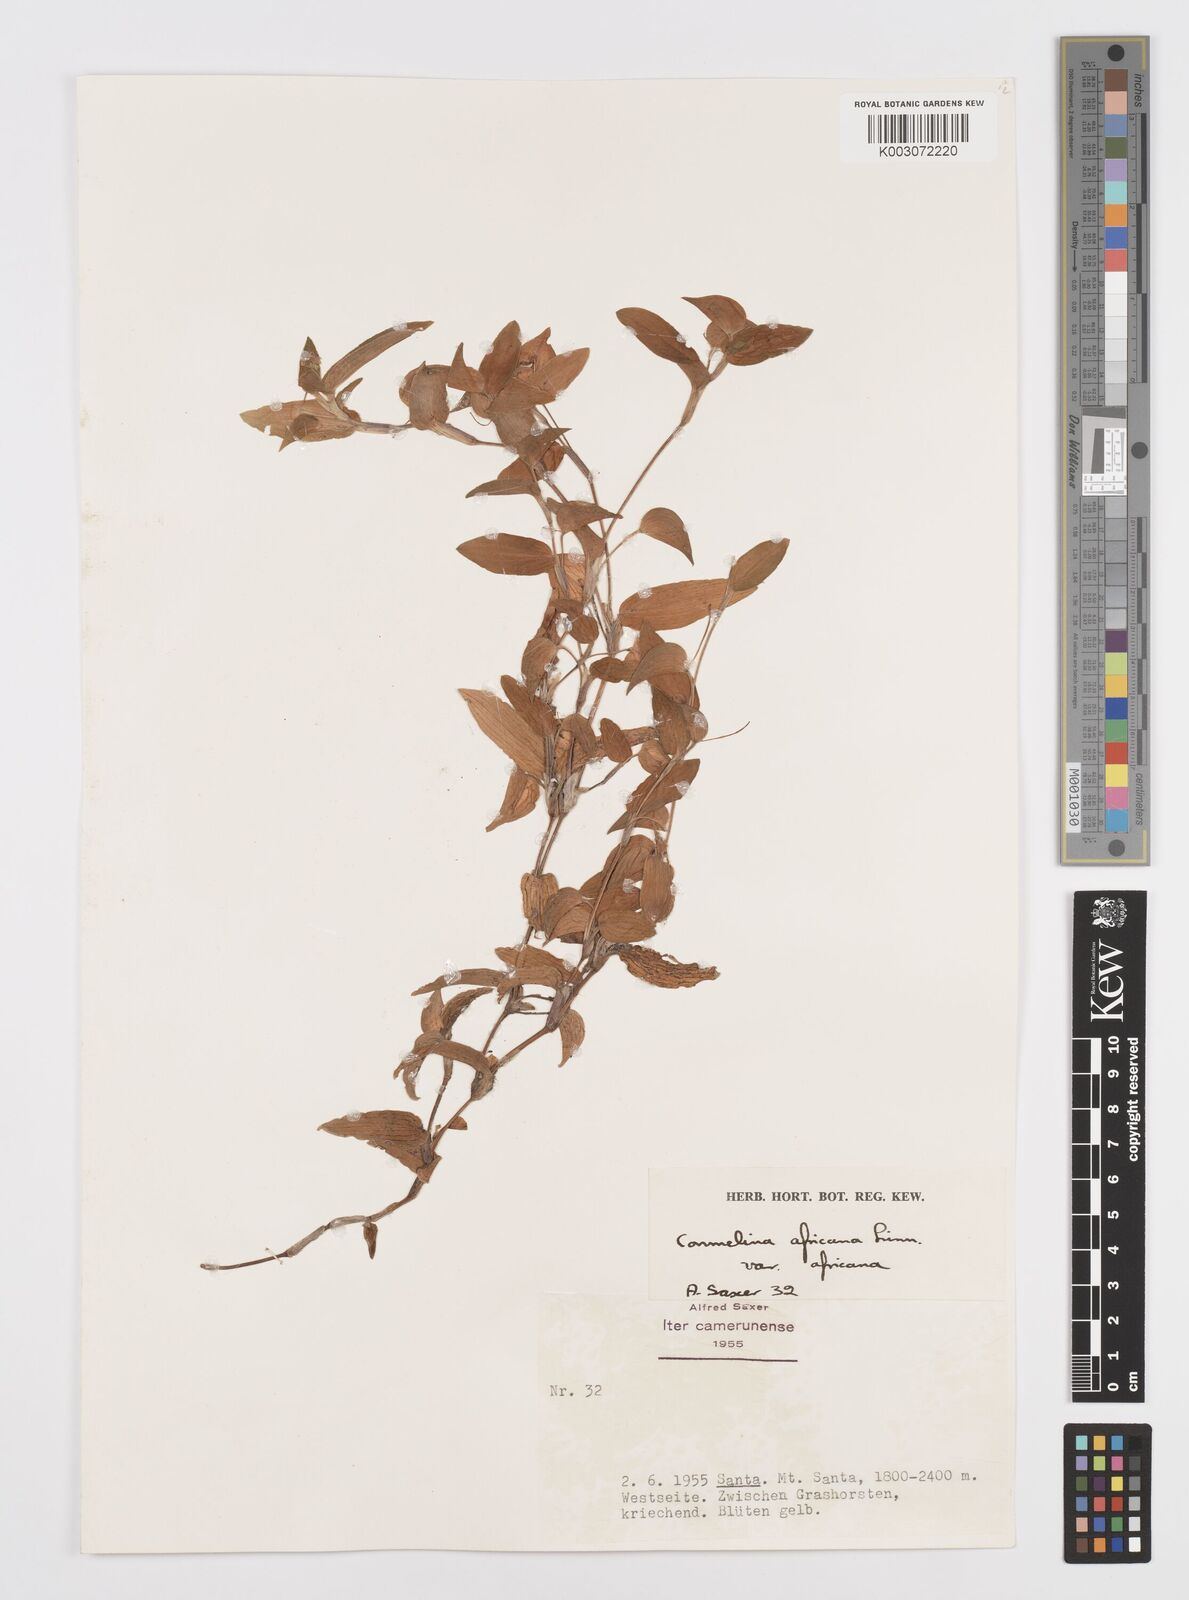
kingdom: Plantae
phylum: Tracheophyta
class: Liliopsida
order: Commelinales
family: Commelinaceae
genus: Commelina
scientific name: Commelina africana
